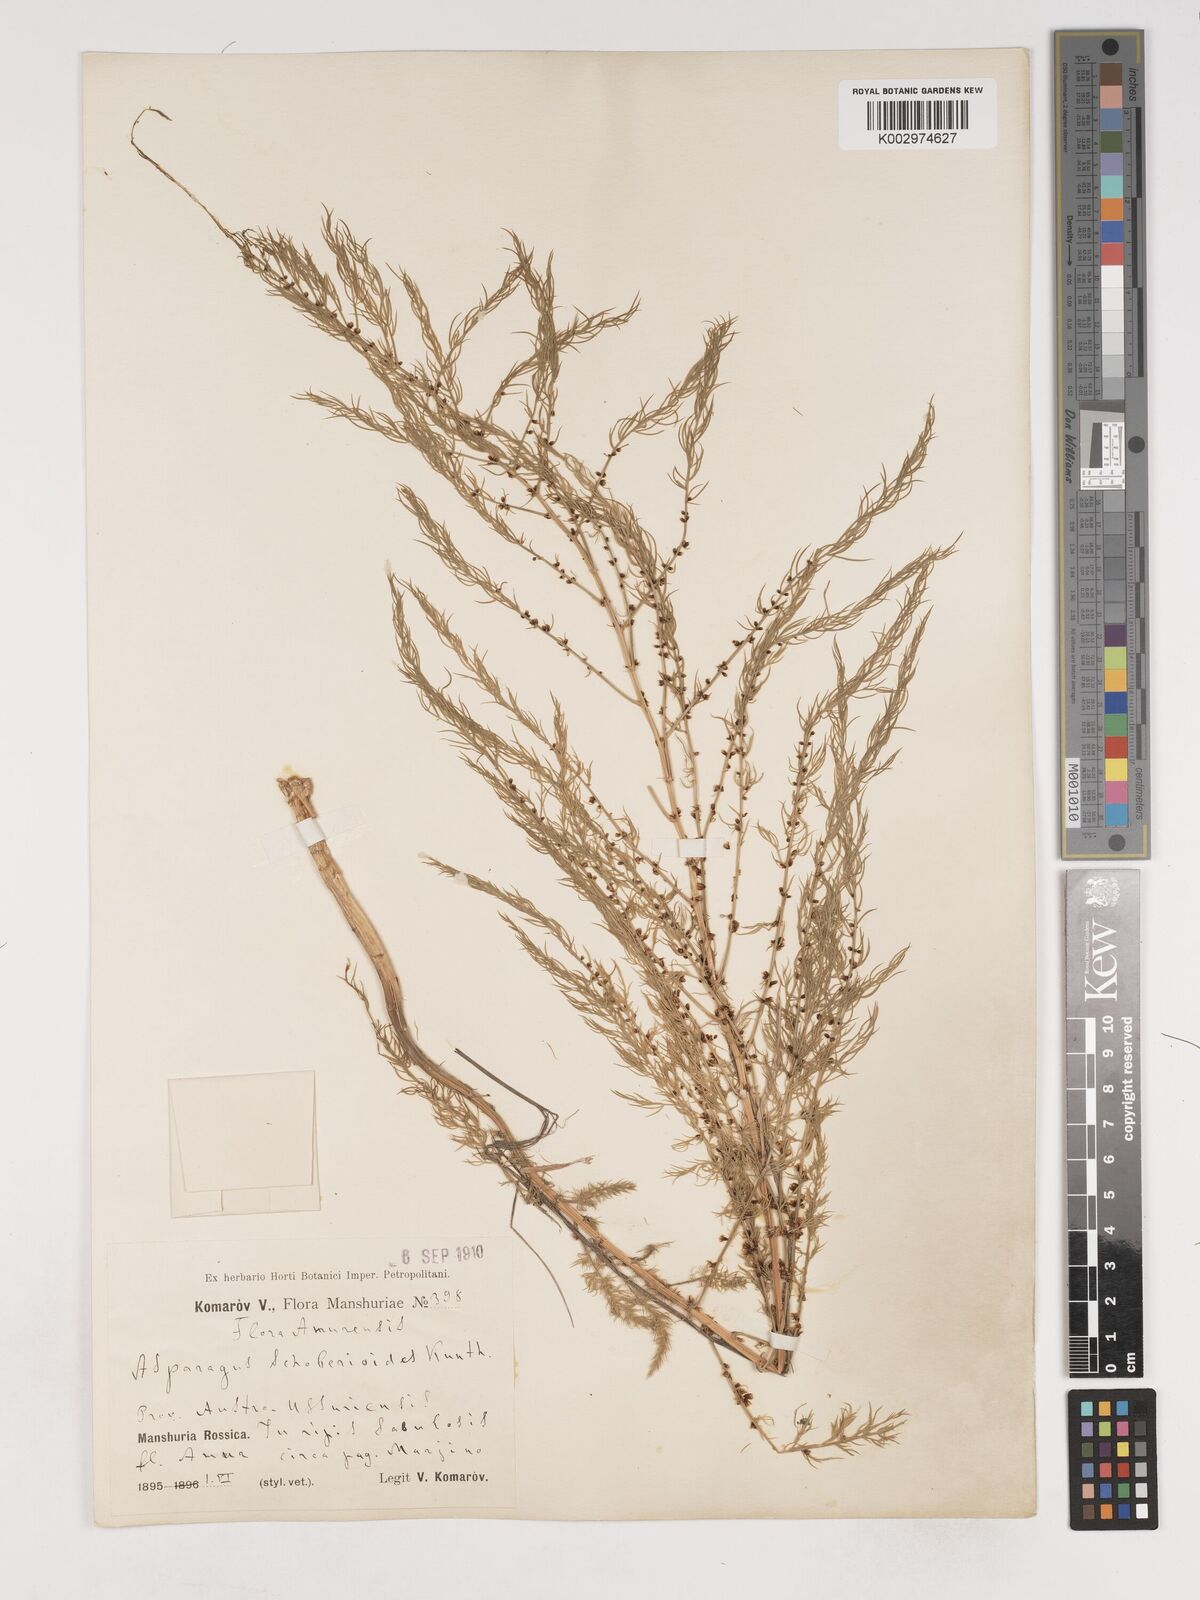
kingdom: Plantae
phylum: Tracheophyta
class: Liliopsida
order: Asparagales
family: Asparagaceae
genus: Asparagus
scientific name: Asparagus schoberioides
